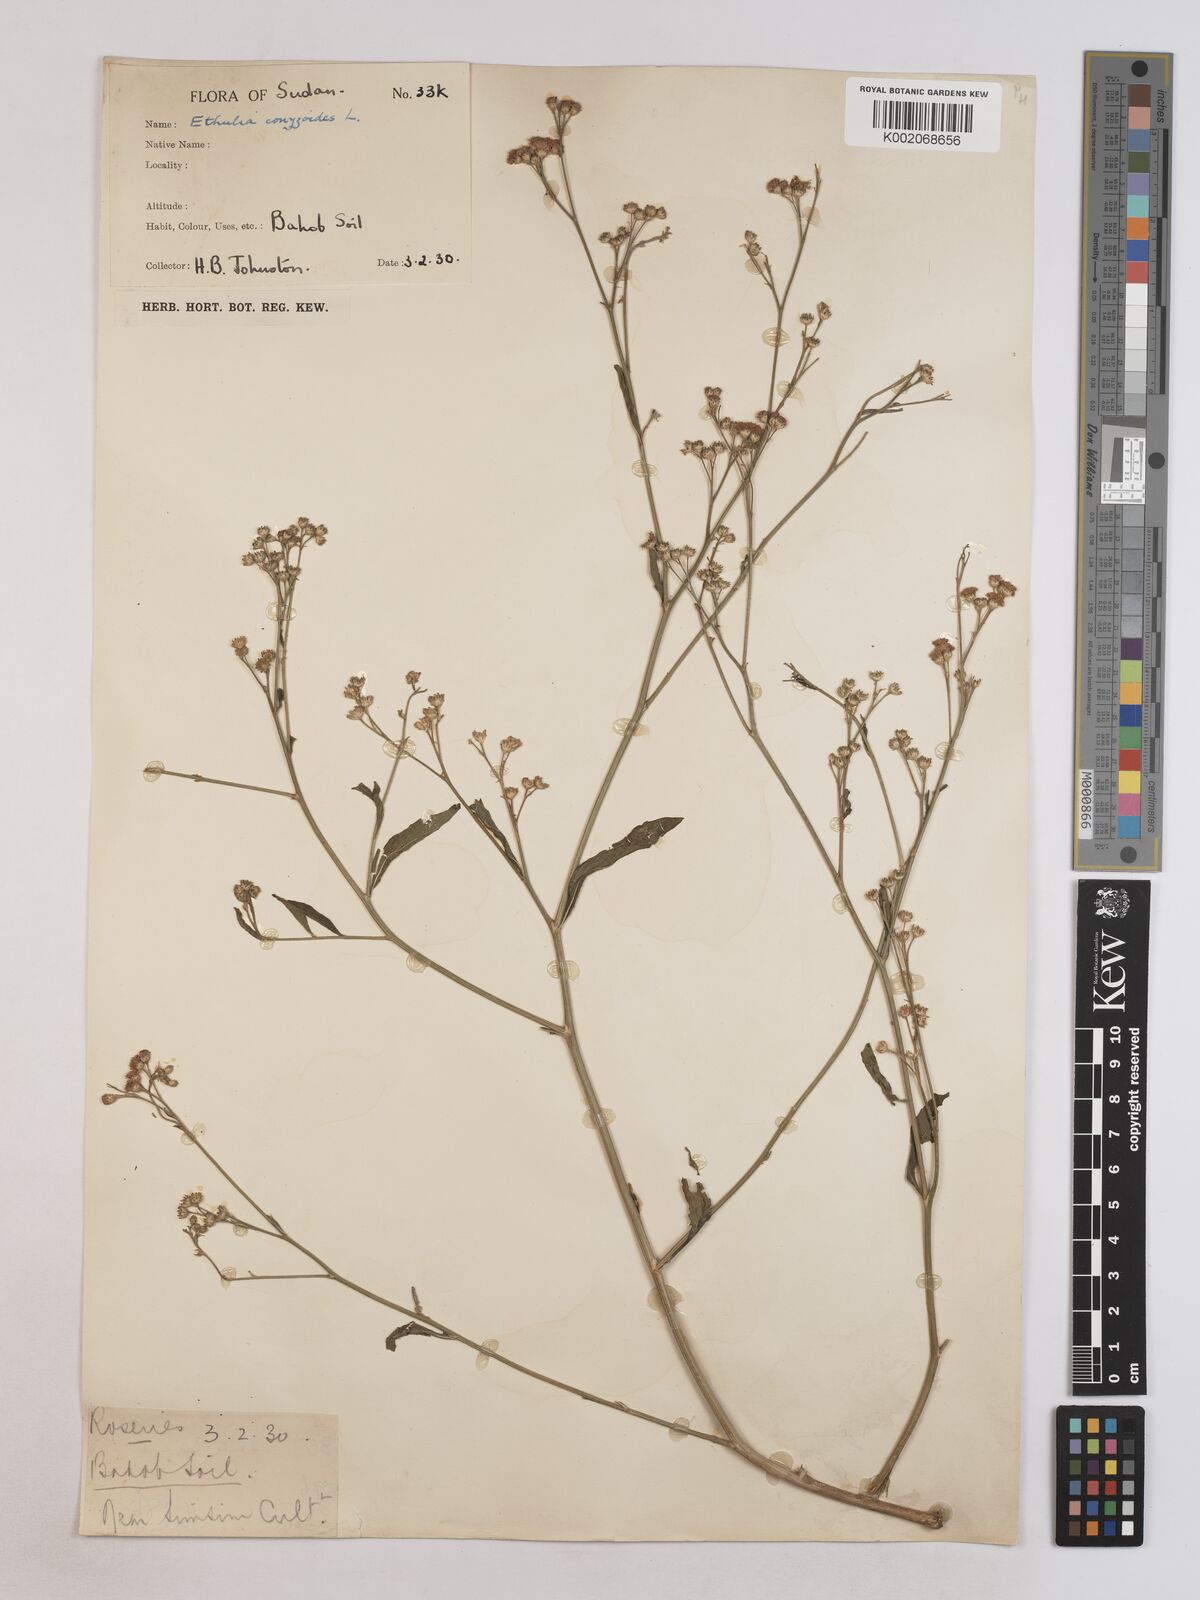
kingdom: Plantae
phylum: Tracheophyta
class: Magnoliopsida
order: Asterales
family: Asteraceae
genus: Ethulia
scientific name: Ethulia gracilis
